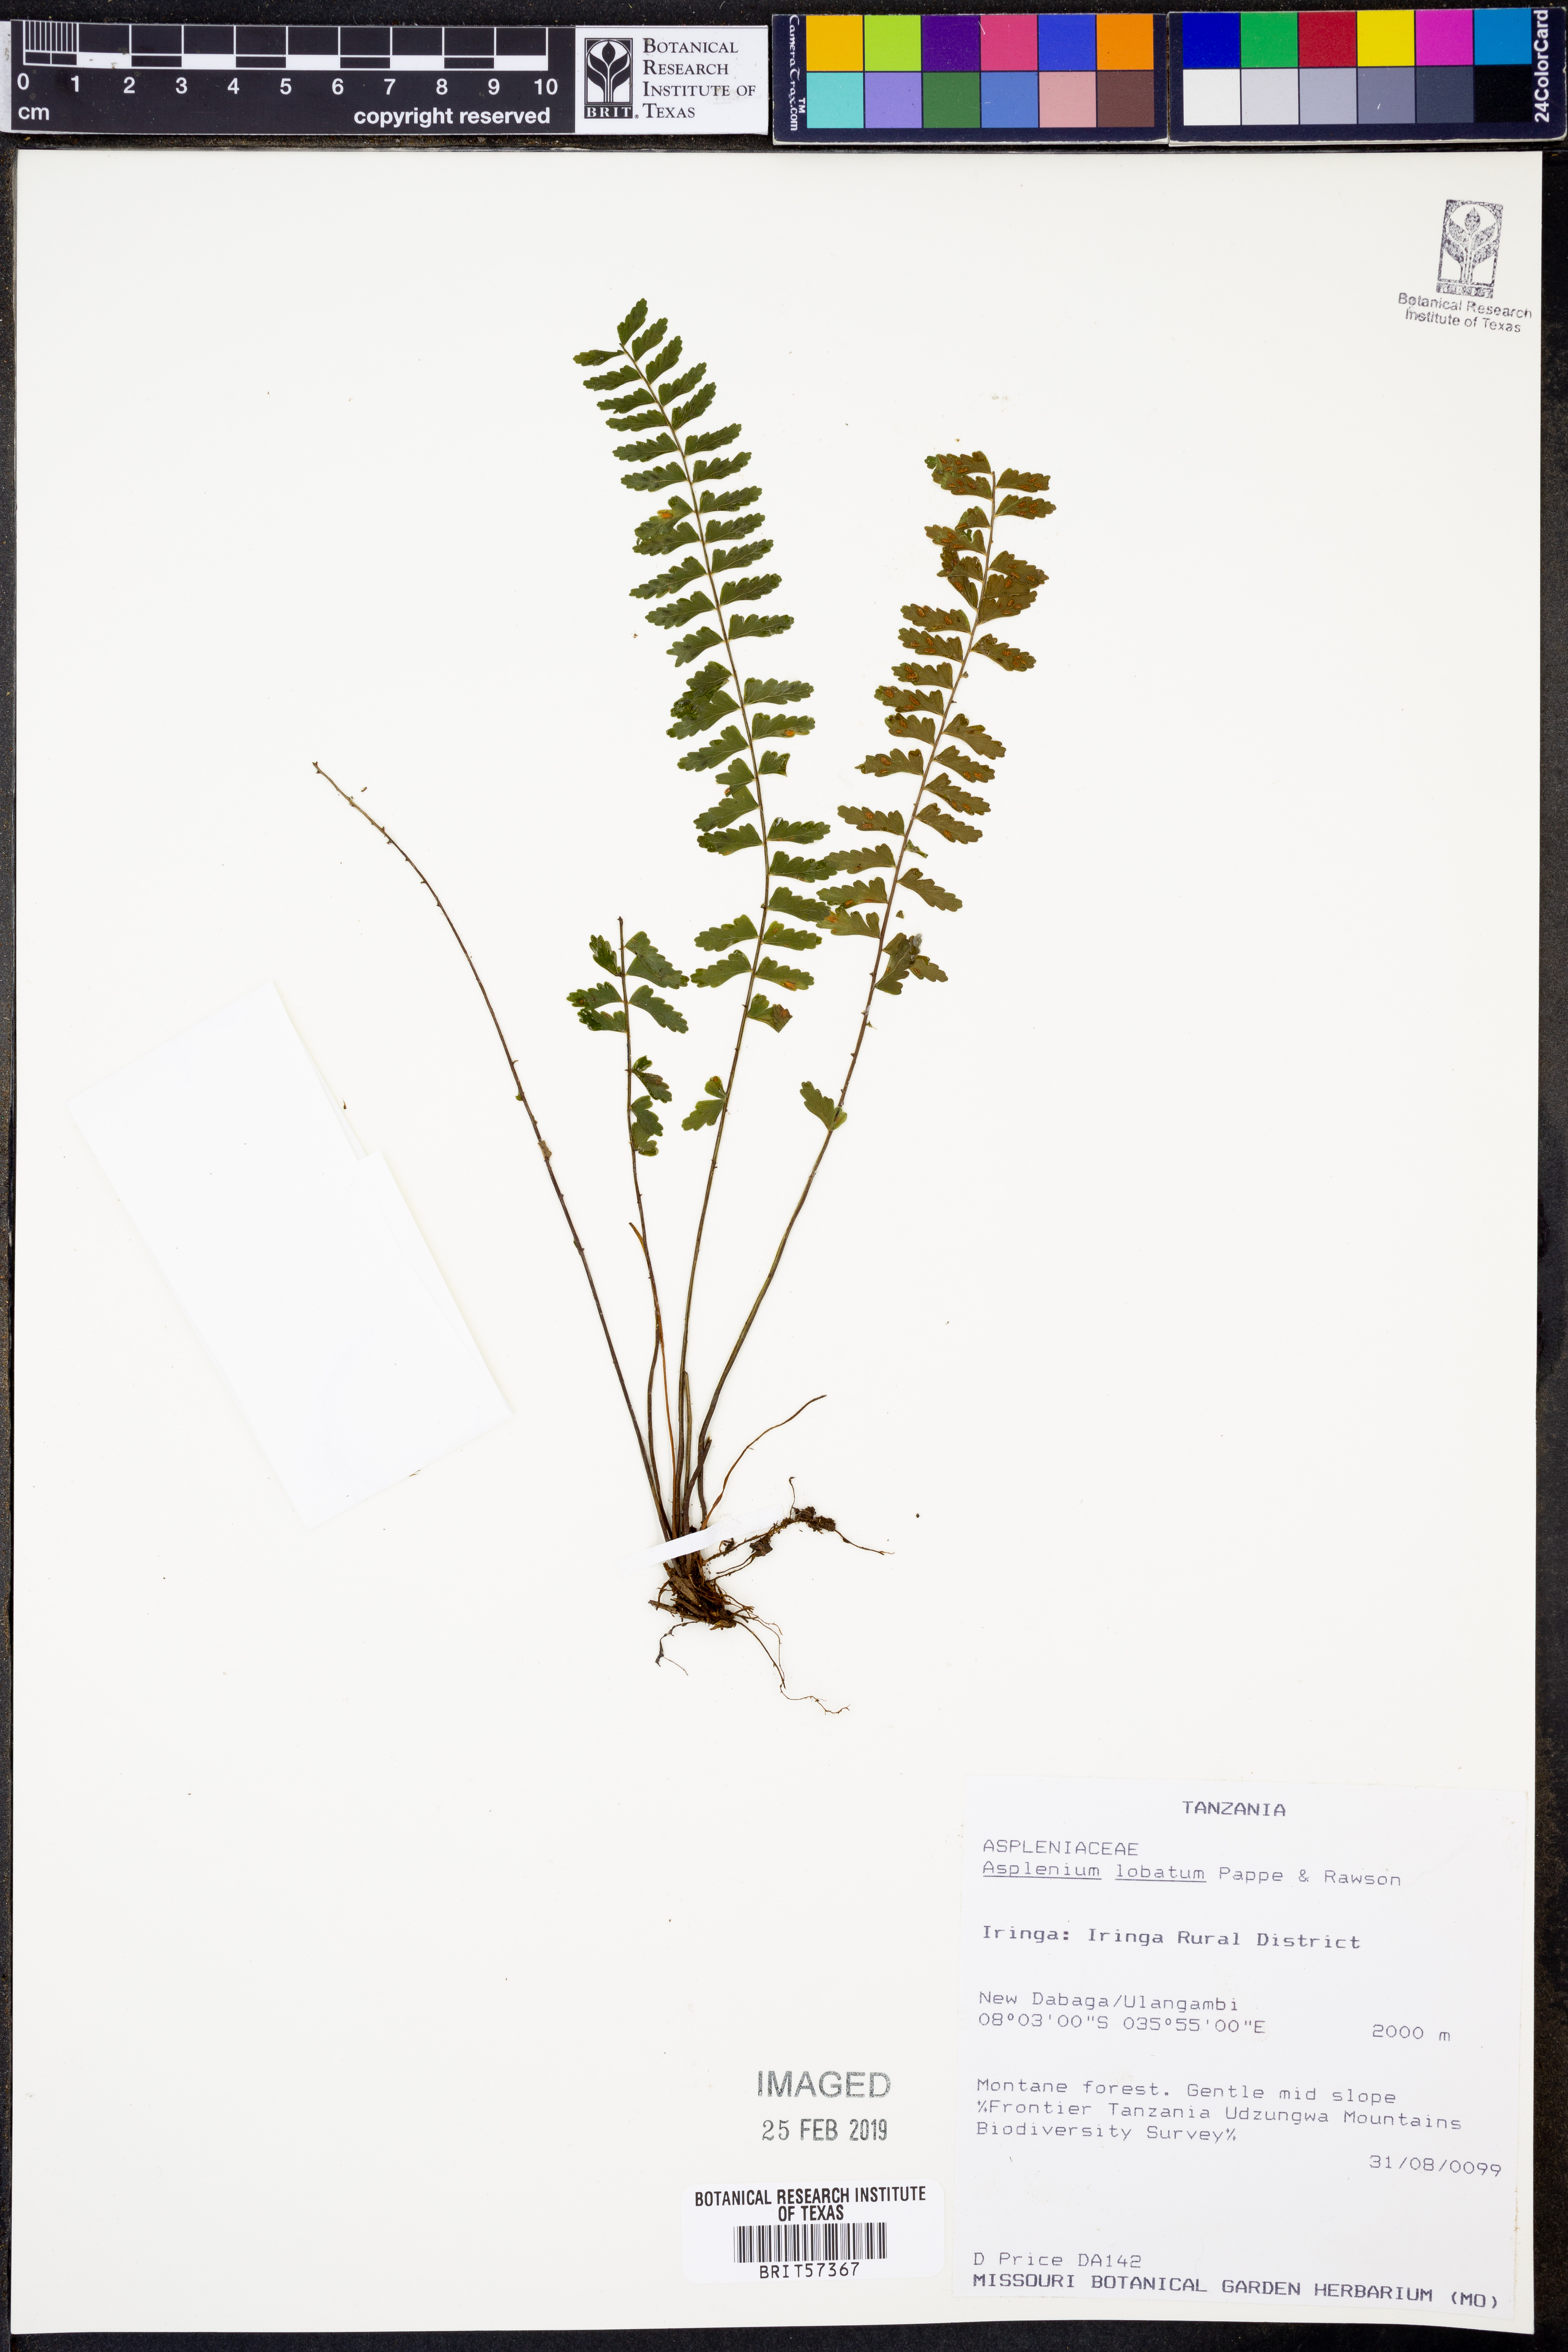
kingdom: Plantae
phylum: Tracheophyta
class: Polypodiopsida
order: Polypodiales
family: Aspleniaceae
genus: Asplenium
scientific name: Asplenium lobulatum
